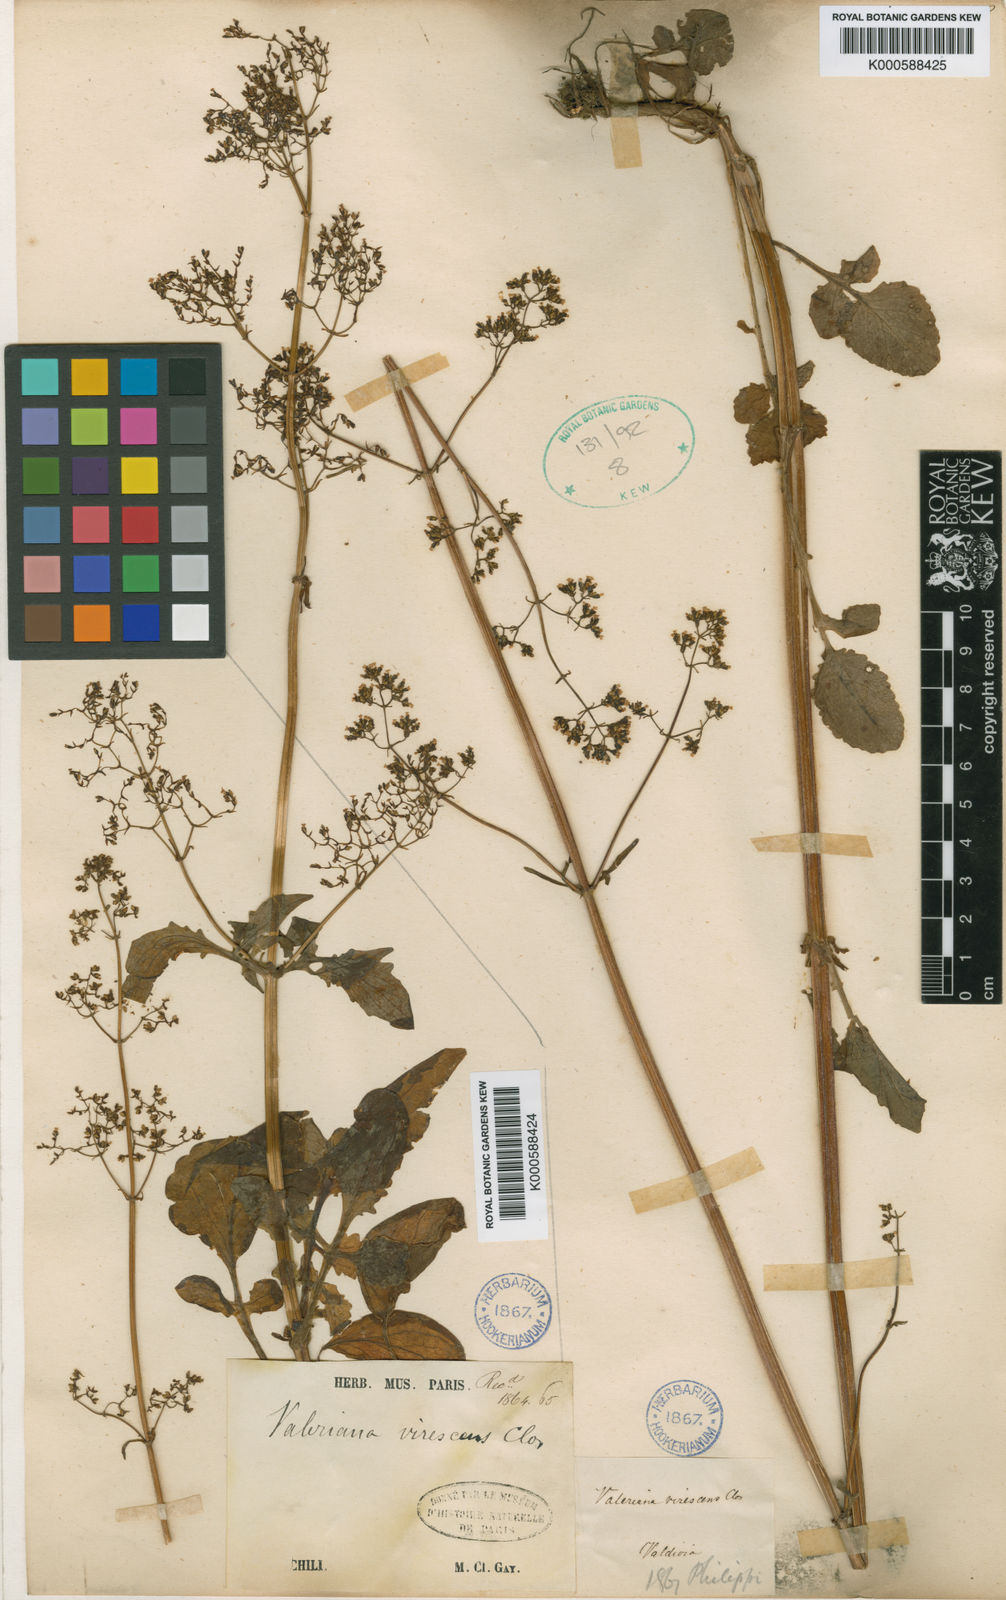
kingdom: Plantae
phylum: Tracheophyta
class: Magnoliopsida
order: Dipsacales
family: Caprifoliaceae
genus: Valeriana
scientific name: Valeriana virescens
